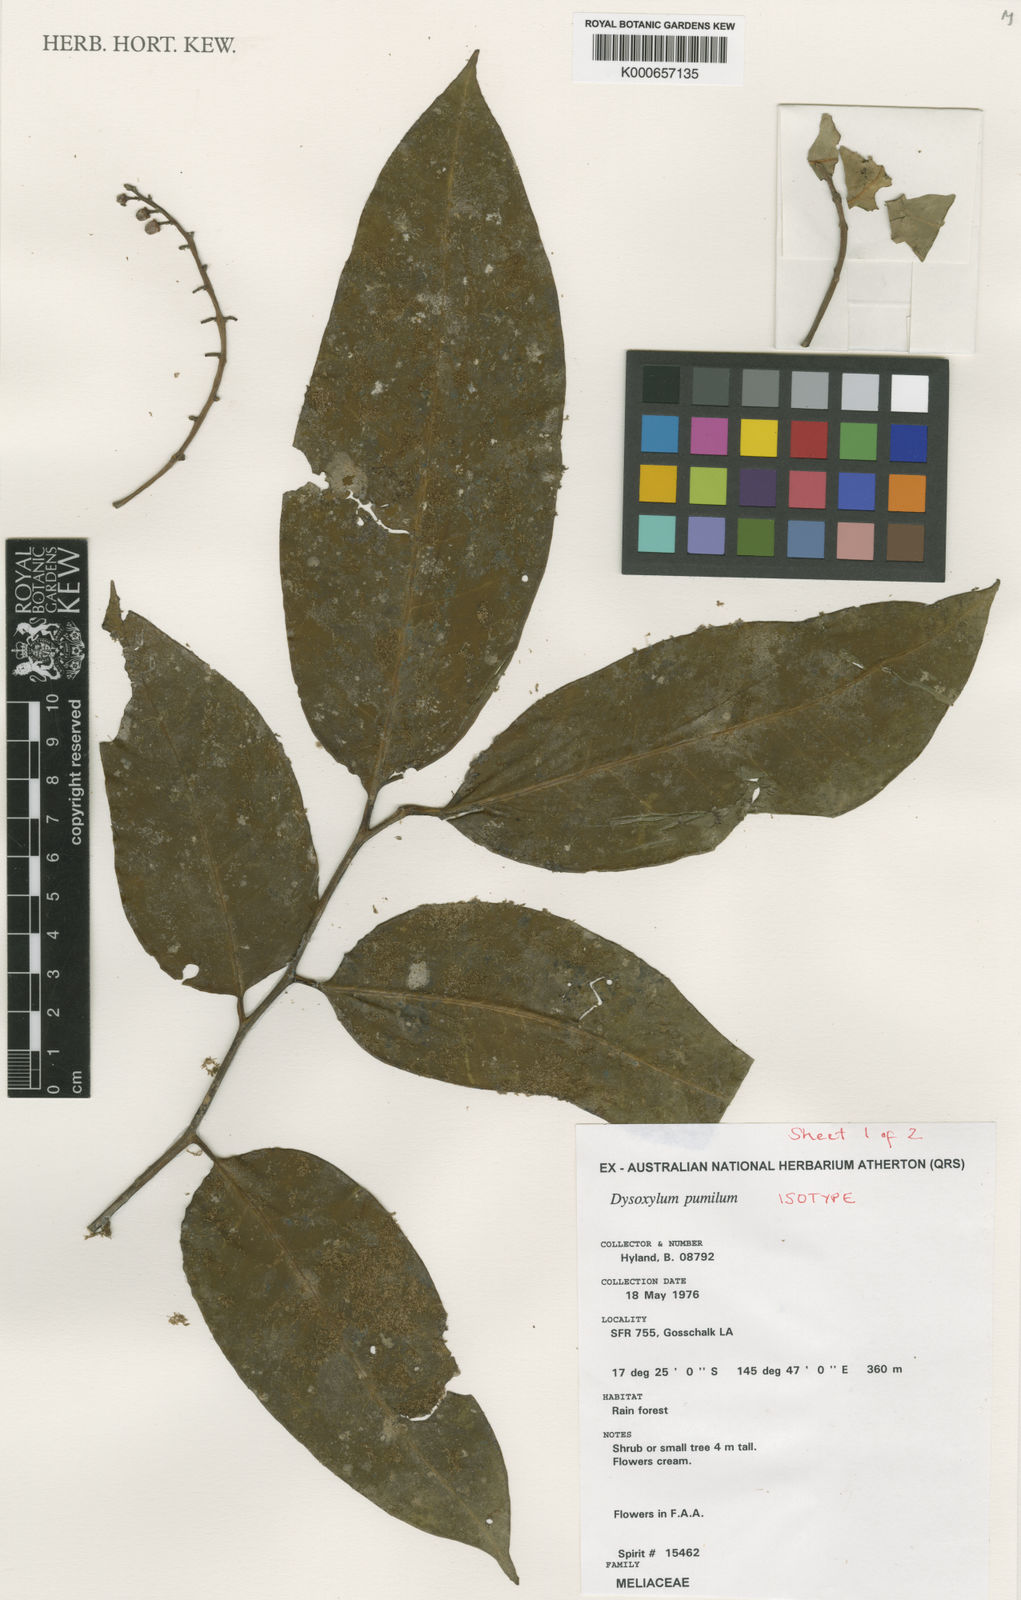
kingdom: Plantae
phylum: Tracheophyta
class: Magnoliopsida
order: Sapindales
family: Meliaceae
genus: Dysoxylum
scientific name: Dysoxylum pumilum
